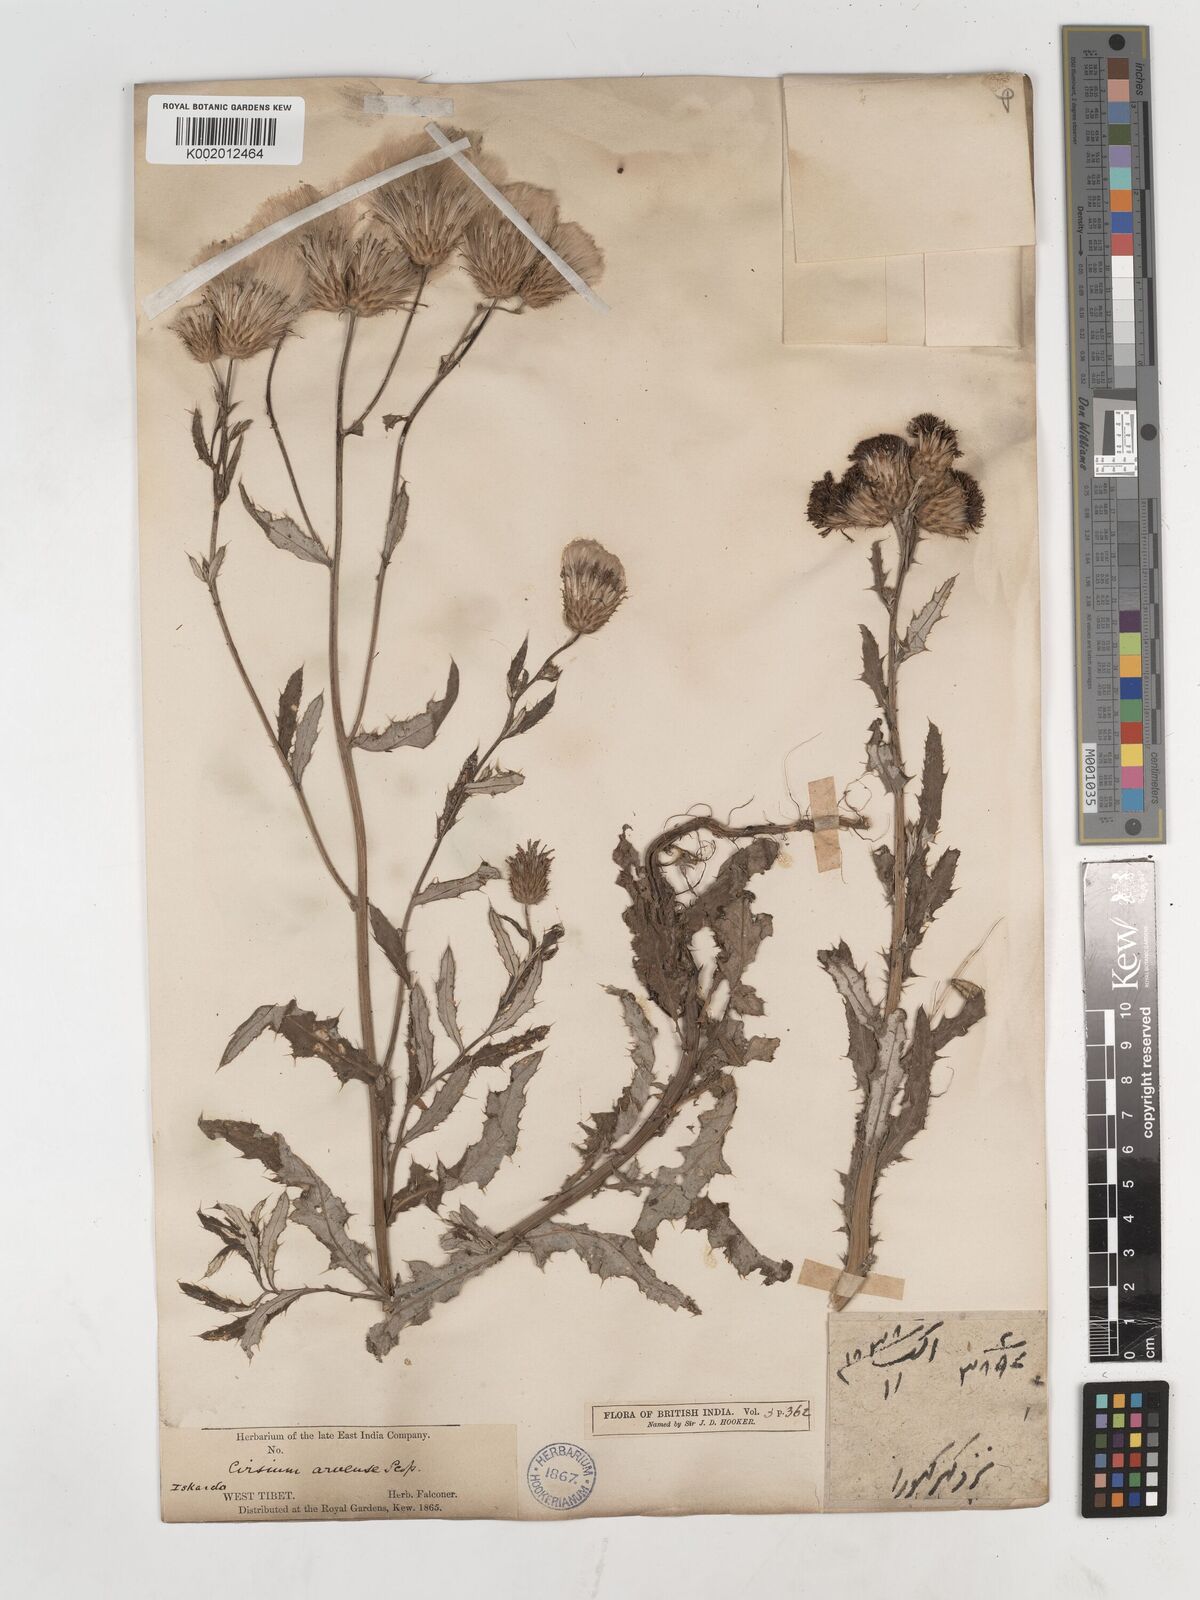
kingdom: Plantae
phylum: Tracheophyta
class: Magnoliopsida
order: Asterales
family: Asteraceae
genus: Cirsium
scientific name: Cirsium arvense
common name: Creeping thistle
